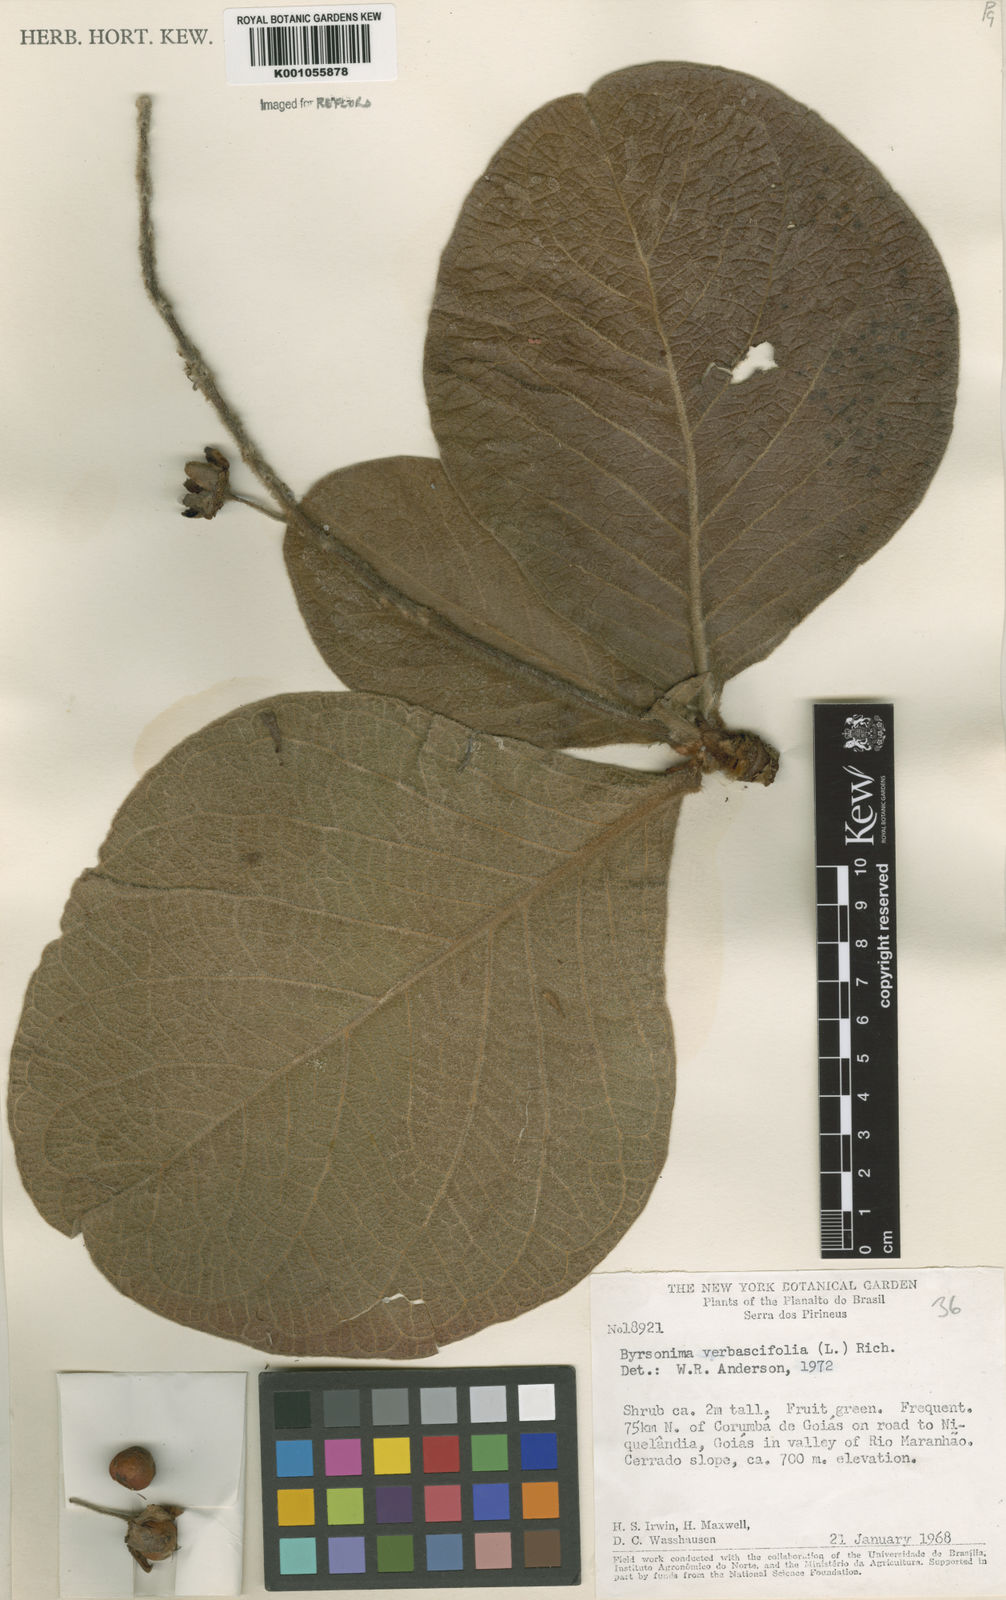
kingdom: Plantae
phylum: Tracheophyta
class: Magnoliopsida
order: Malpighiales
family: Malpighiaceae
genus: Byrsonima
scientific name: Byrsonima verbascifolia
